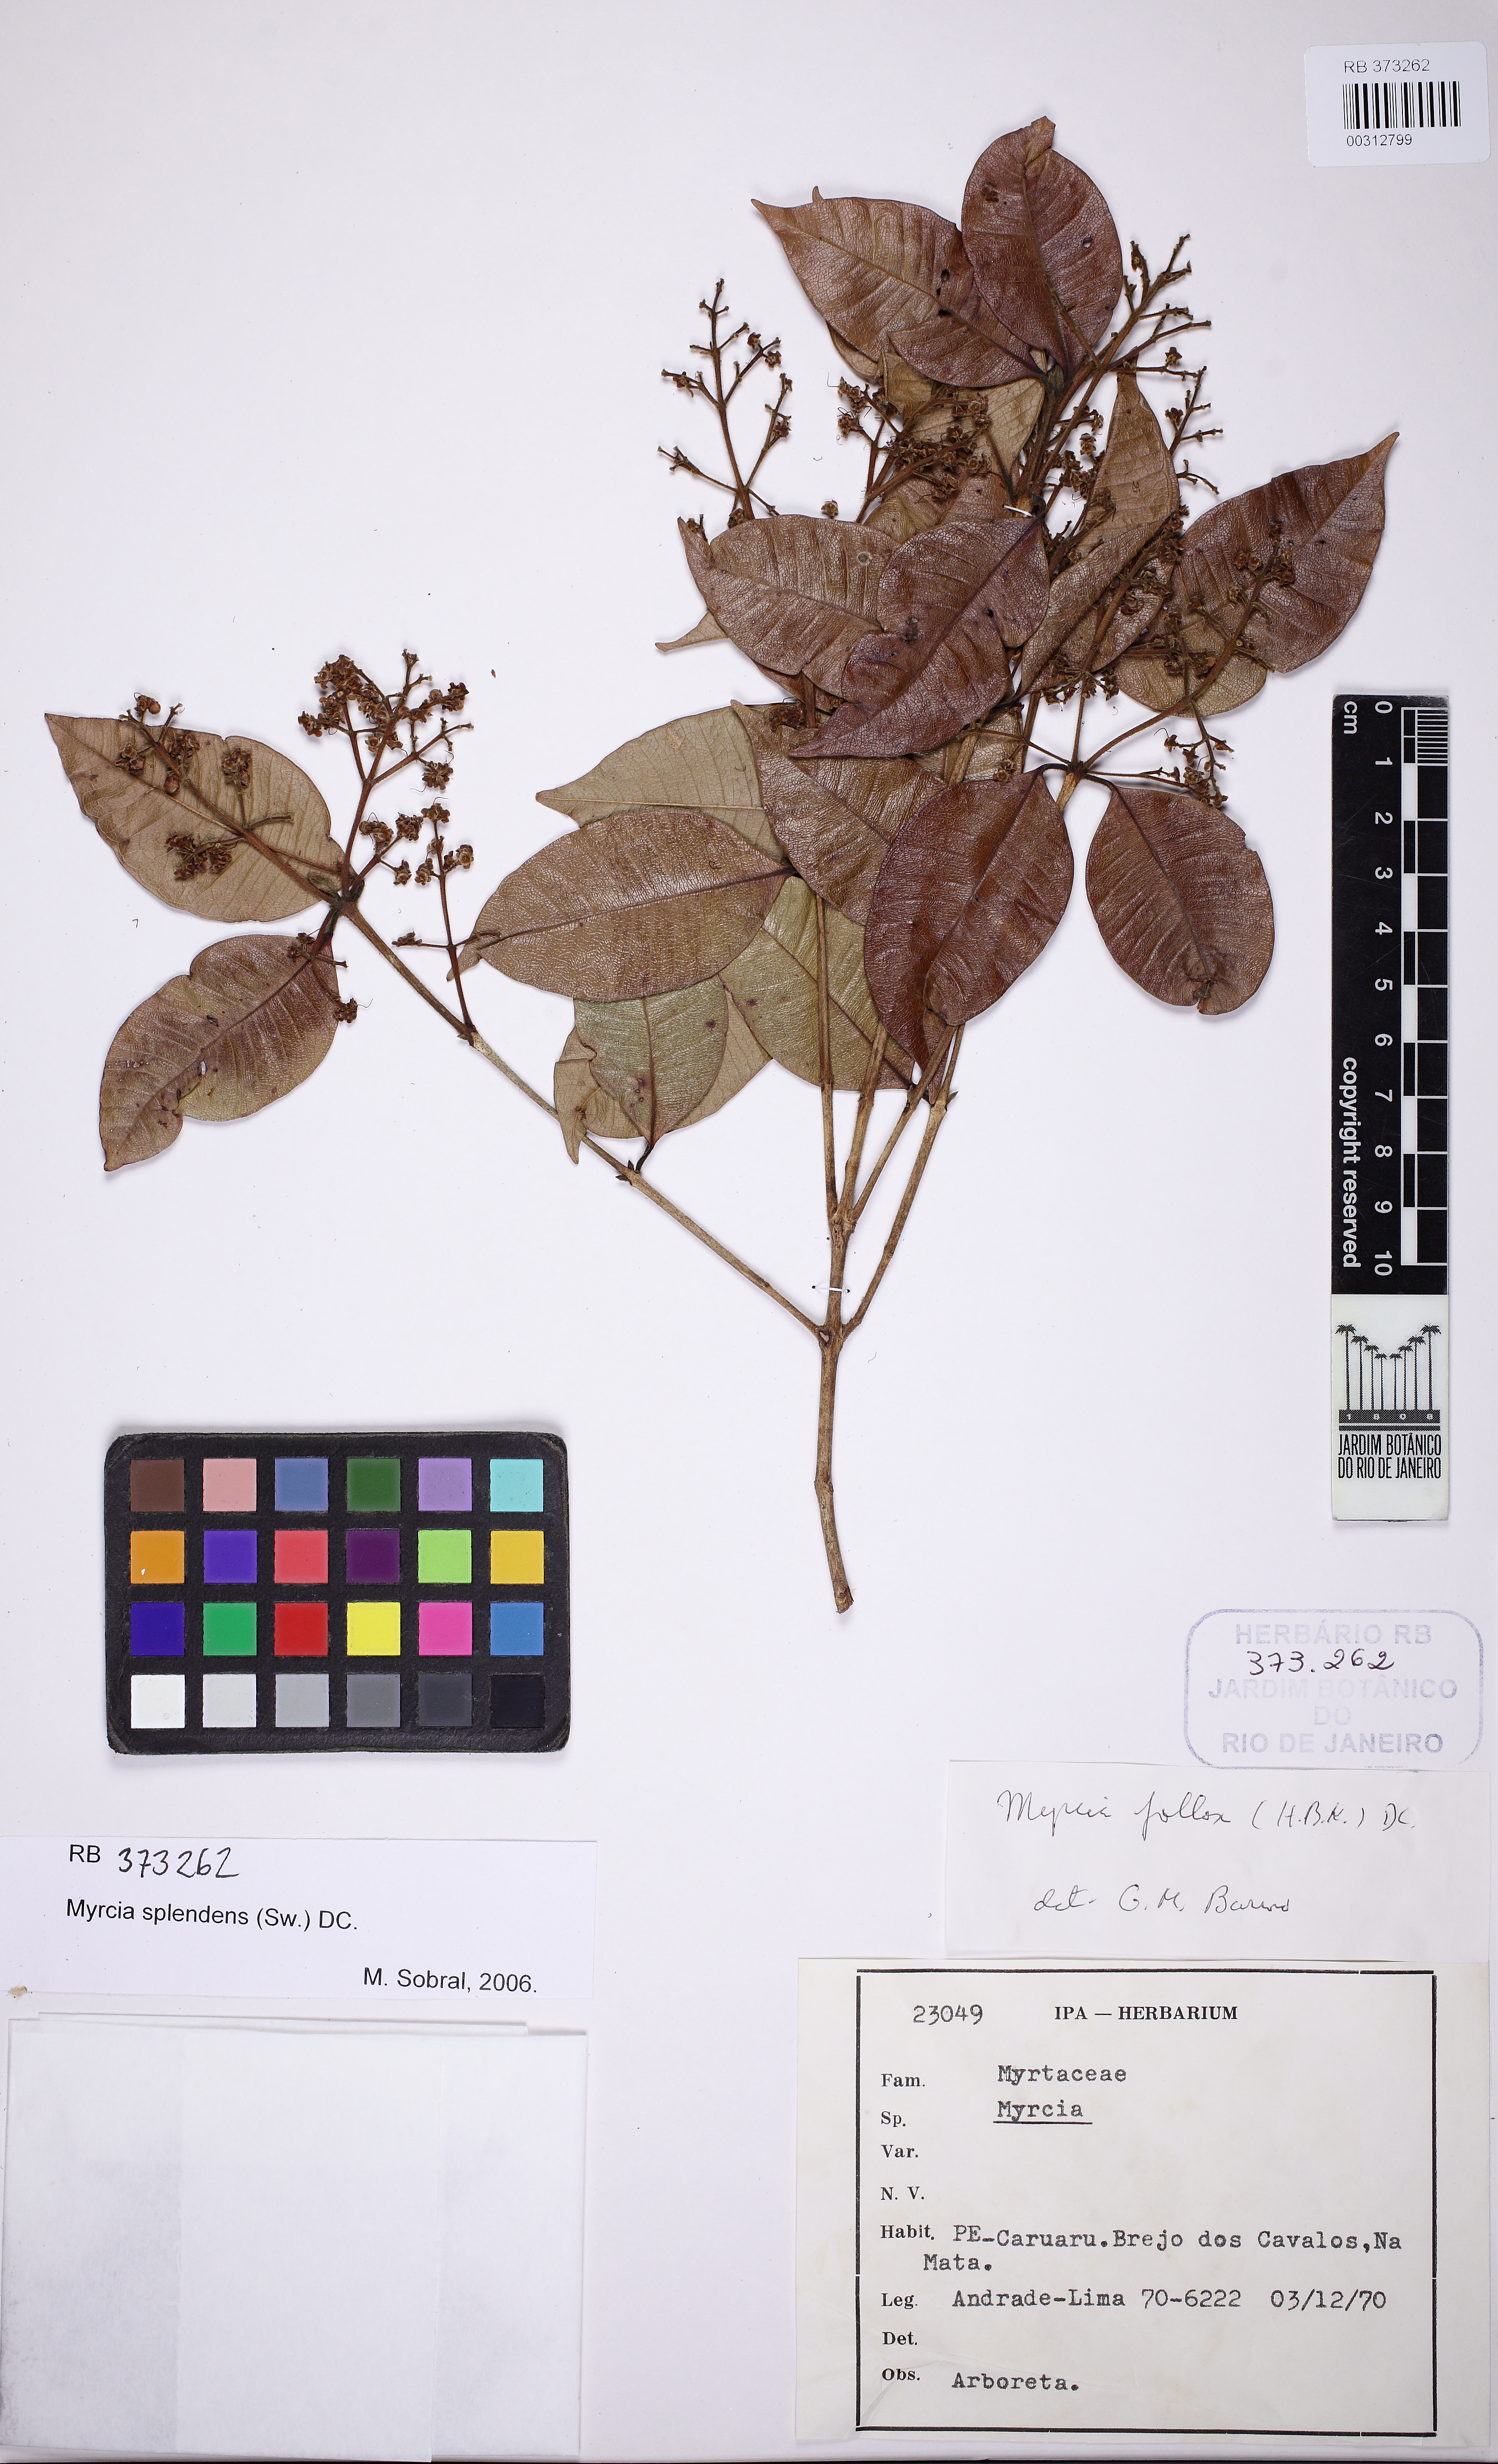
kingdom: Plantae
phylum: Tracheophyta
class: Magnoliopsida
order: Myrtales
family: Myrtaceae
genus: Myrcia
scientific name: Myrcia splendens
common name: Surinam cherry
